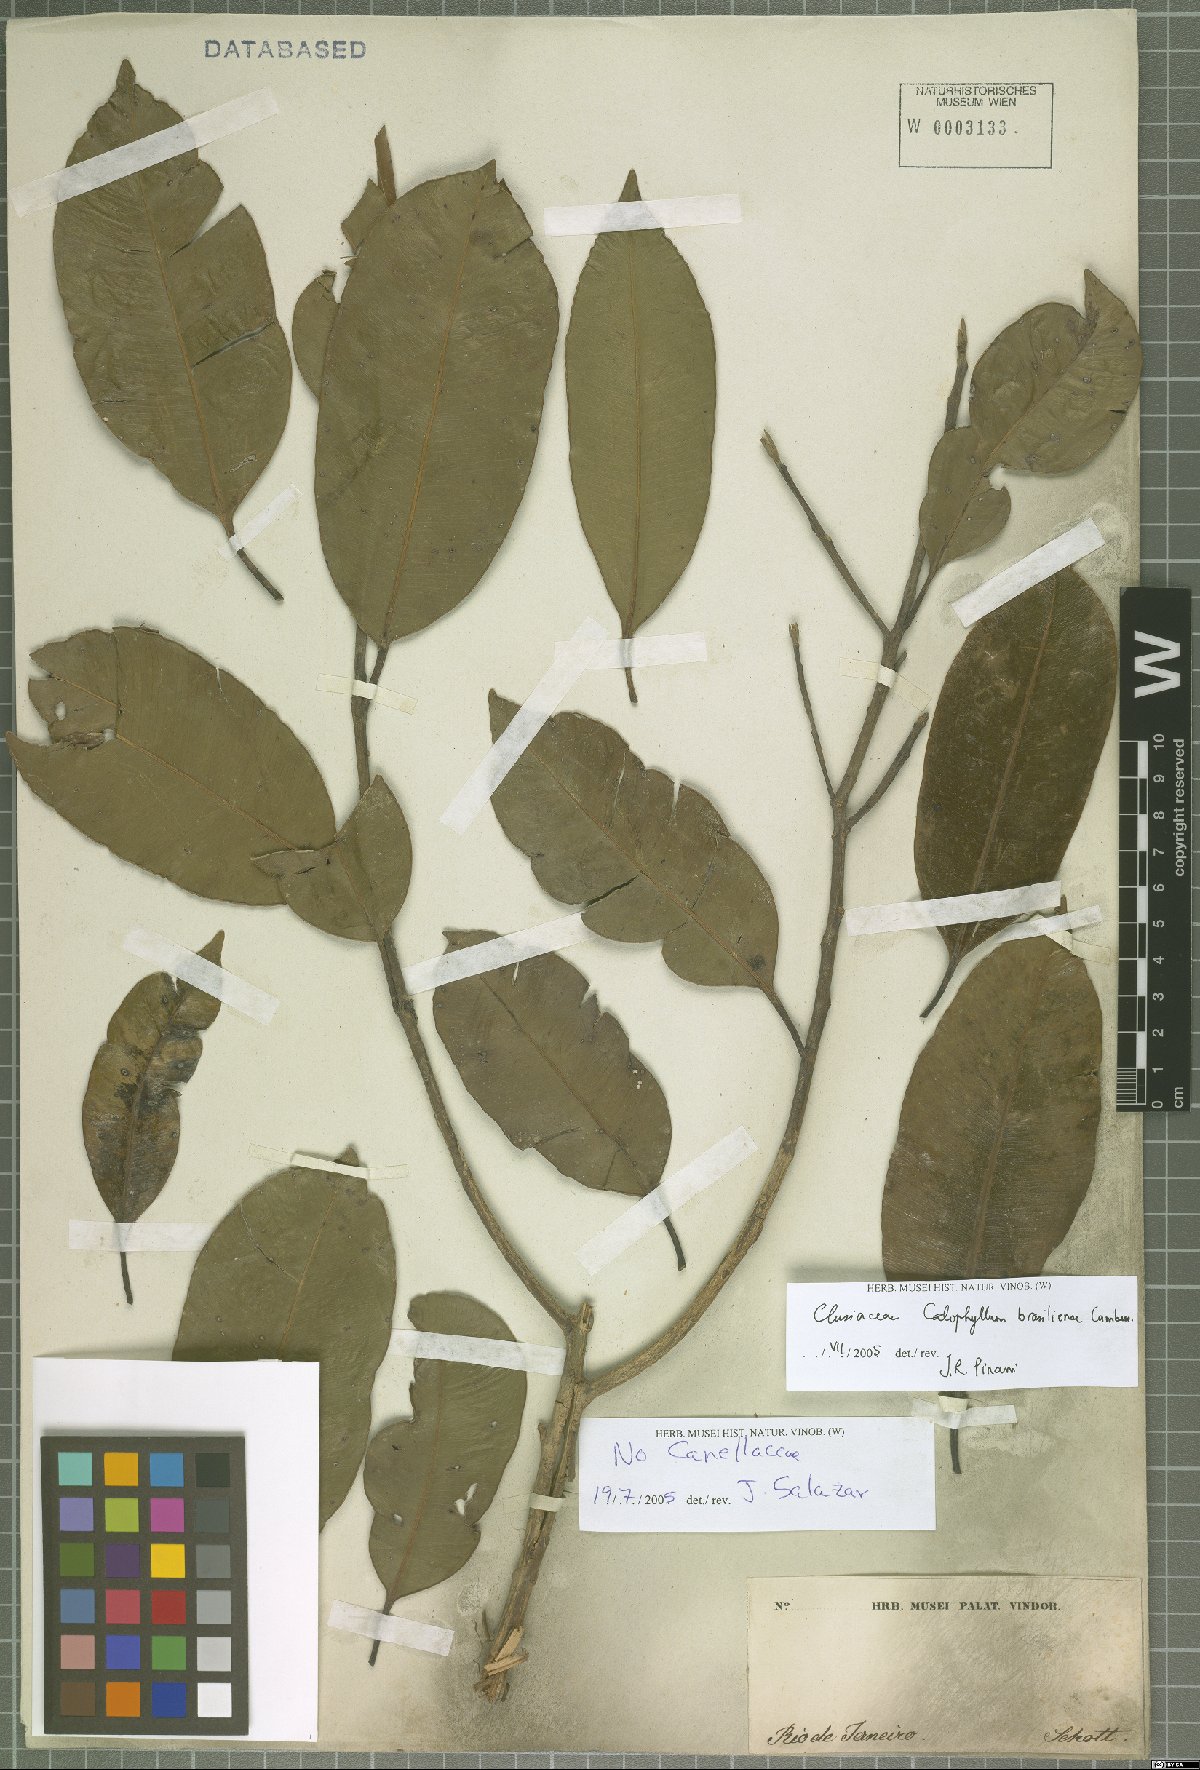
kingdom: Plantae
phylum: Tracheophyta
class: Magnoliopsida
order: Malpighiales
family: Calophyllaceae
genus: Calophyllum
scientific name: Calophyllum brasiliense
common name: Santa maria
